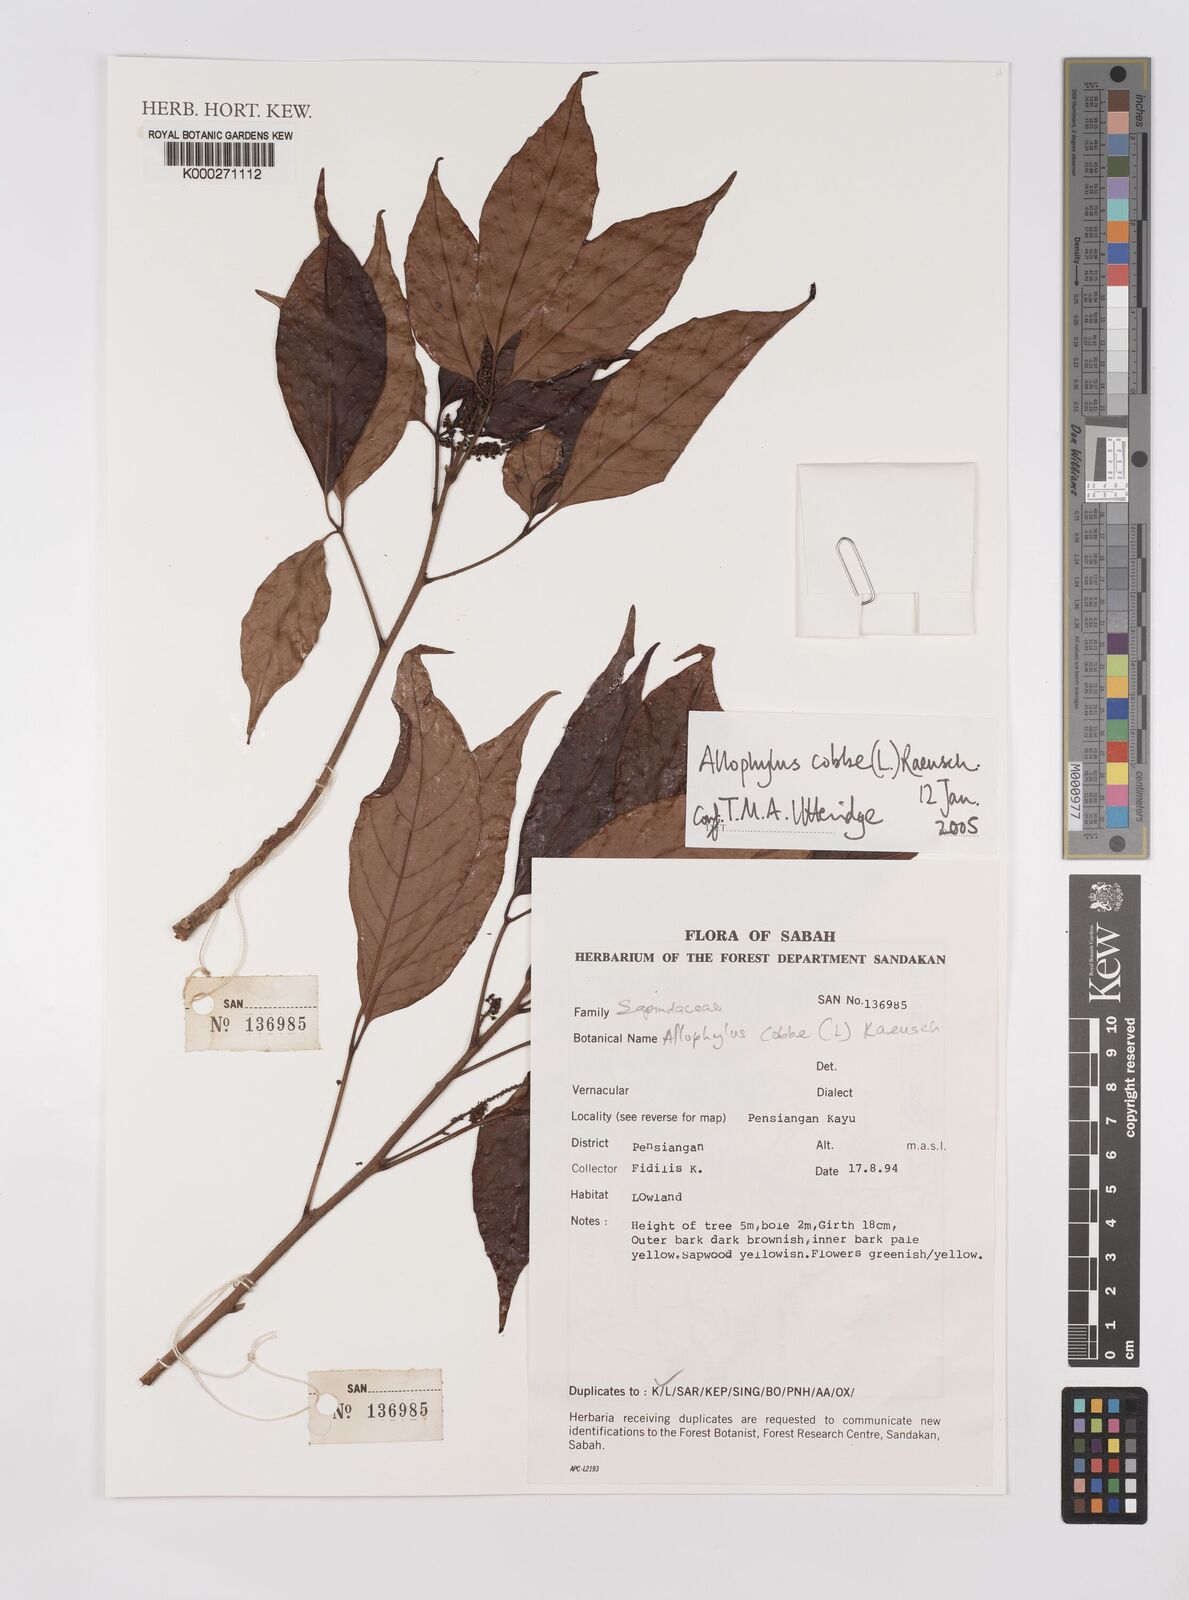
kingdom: Plantae
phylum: Tracheophyta
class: Magnoliopsida
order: Sapindales
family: Sapindaceae
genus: Allophylus
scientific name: Allophylus
